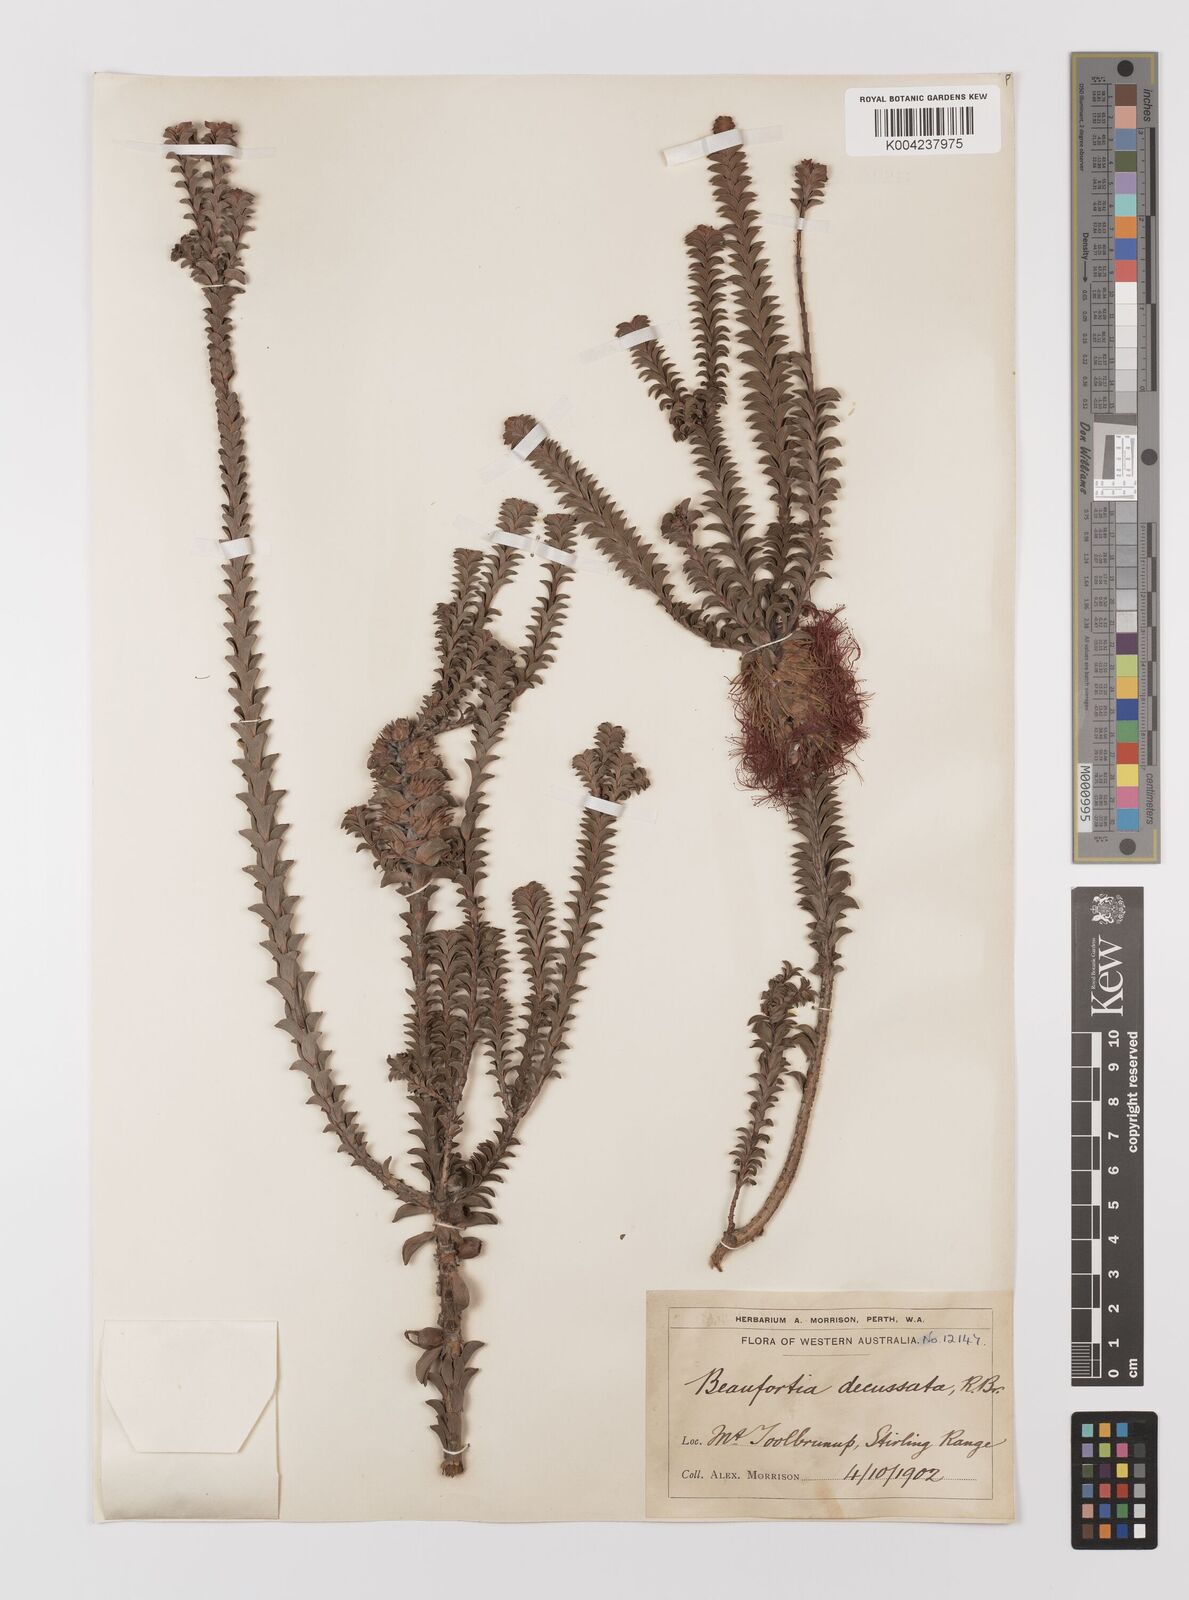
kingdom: Plantae
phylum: Tracheophyta
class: Magnoliopsida
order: Myrtales
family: Myrtaceae
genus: Melaleuca
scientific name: Melaleuca transversa
